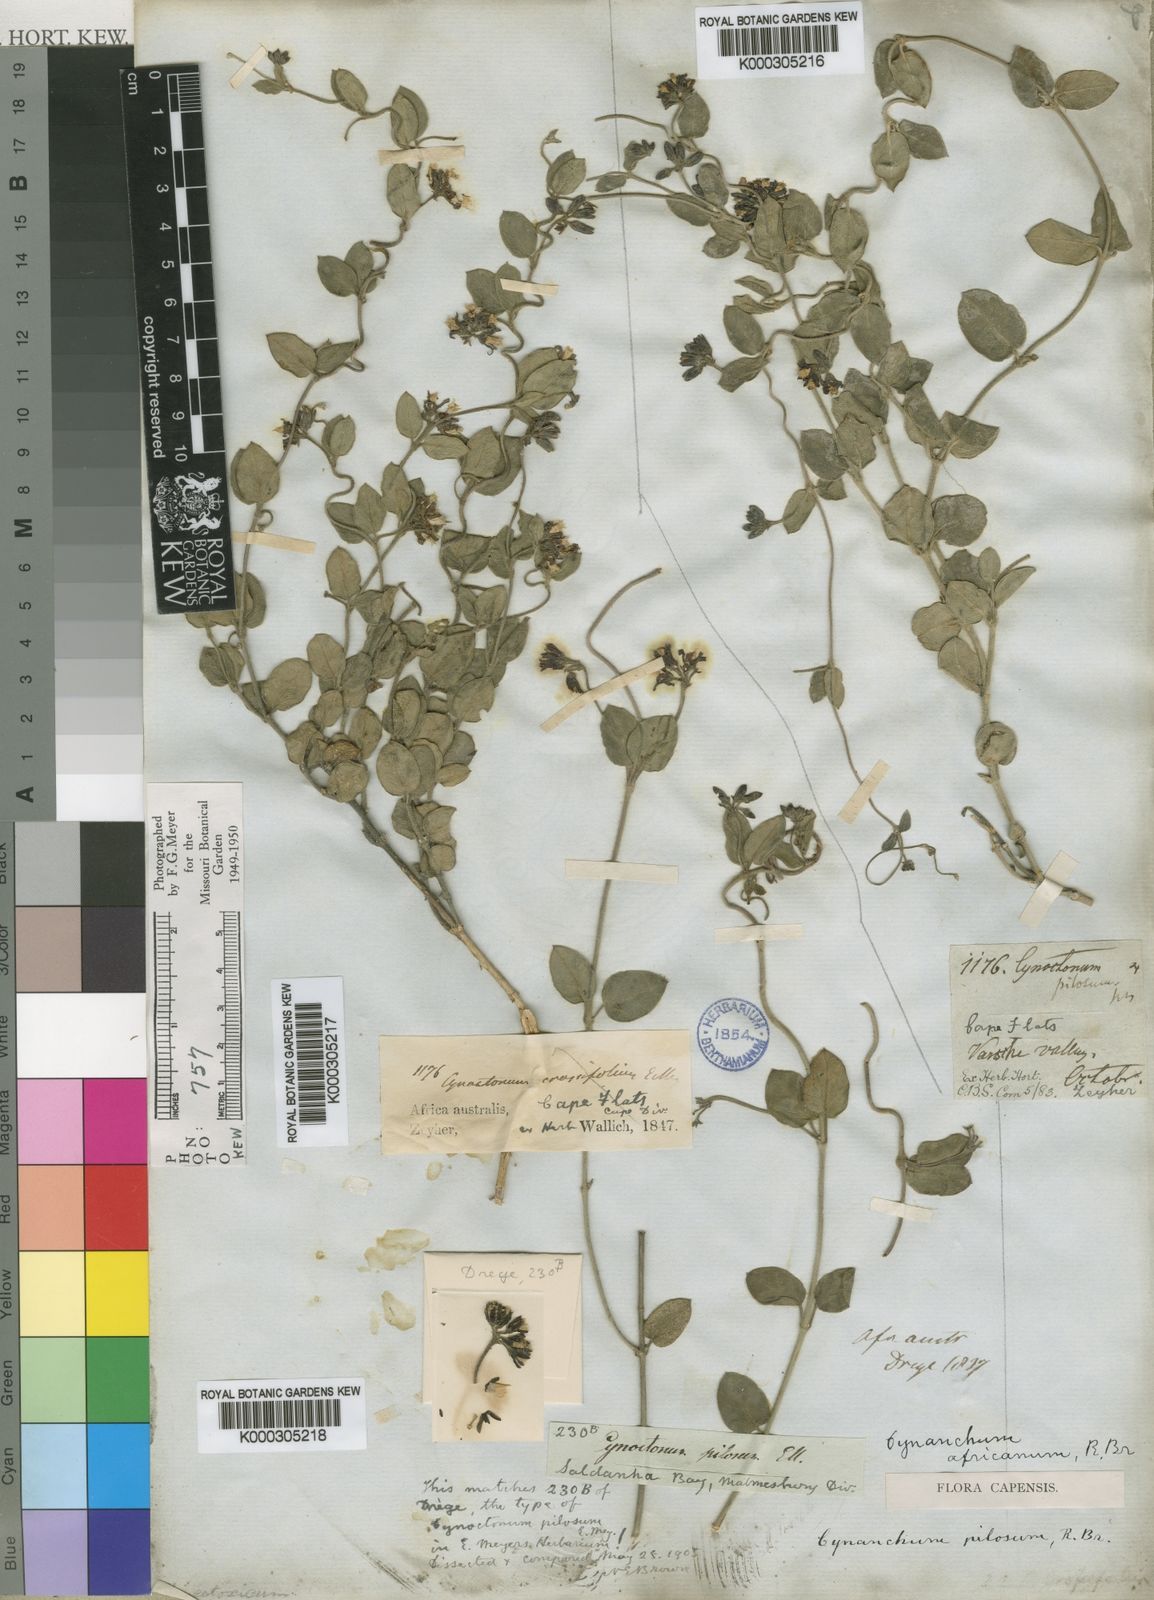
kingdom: Plantae
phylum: Tracheophyta
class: Magnoliopsida
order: Gentianales
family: Apocynaceae
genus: Cynanchum
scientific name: Cynanchum africanum
